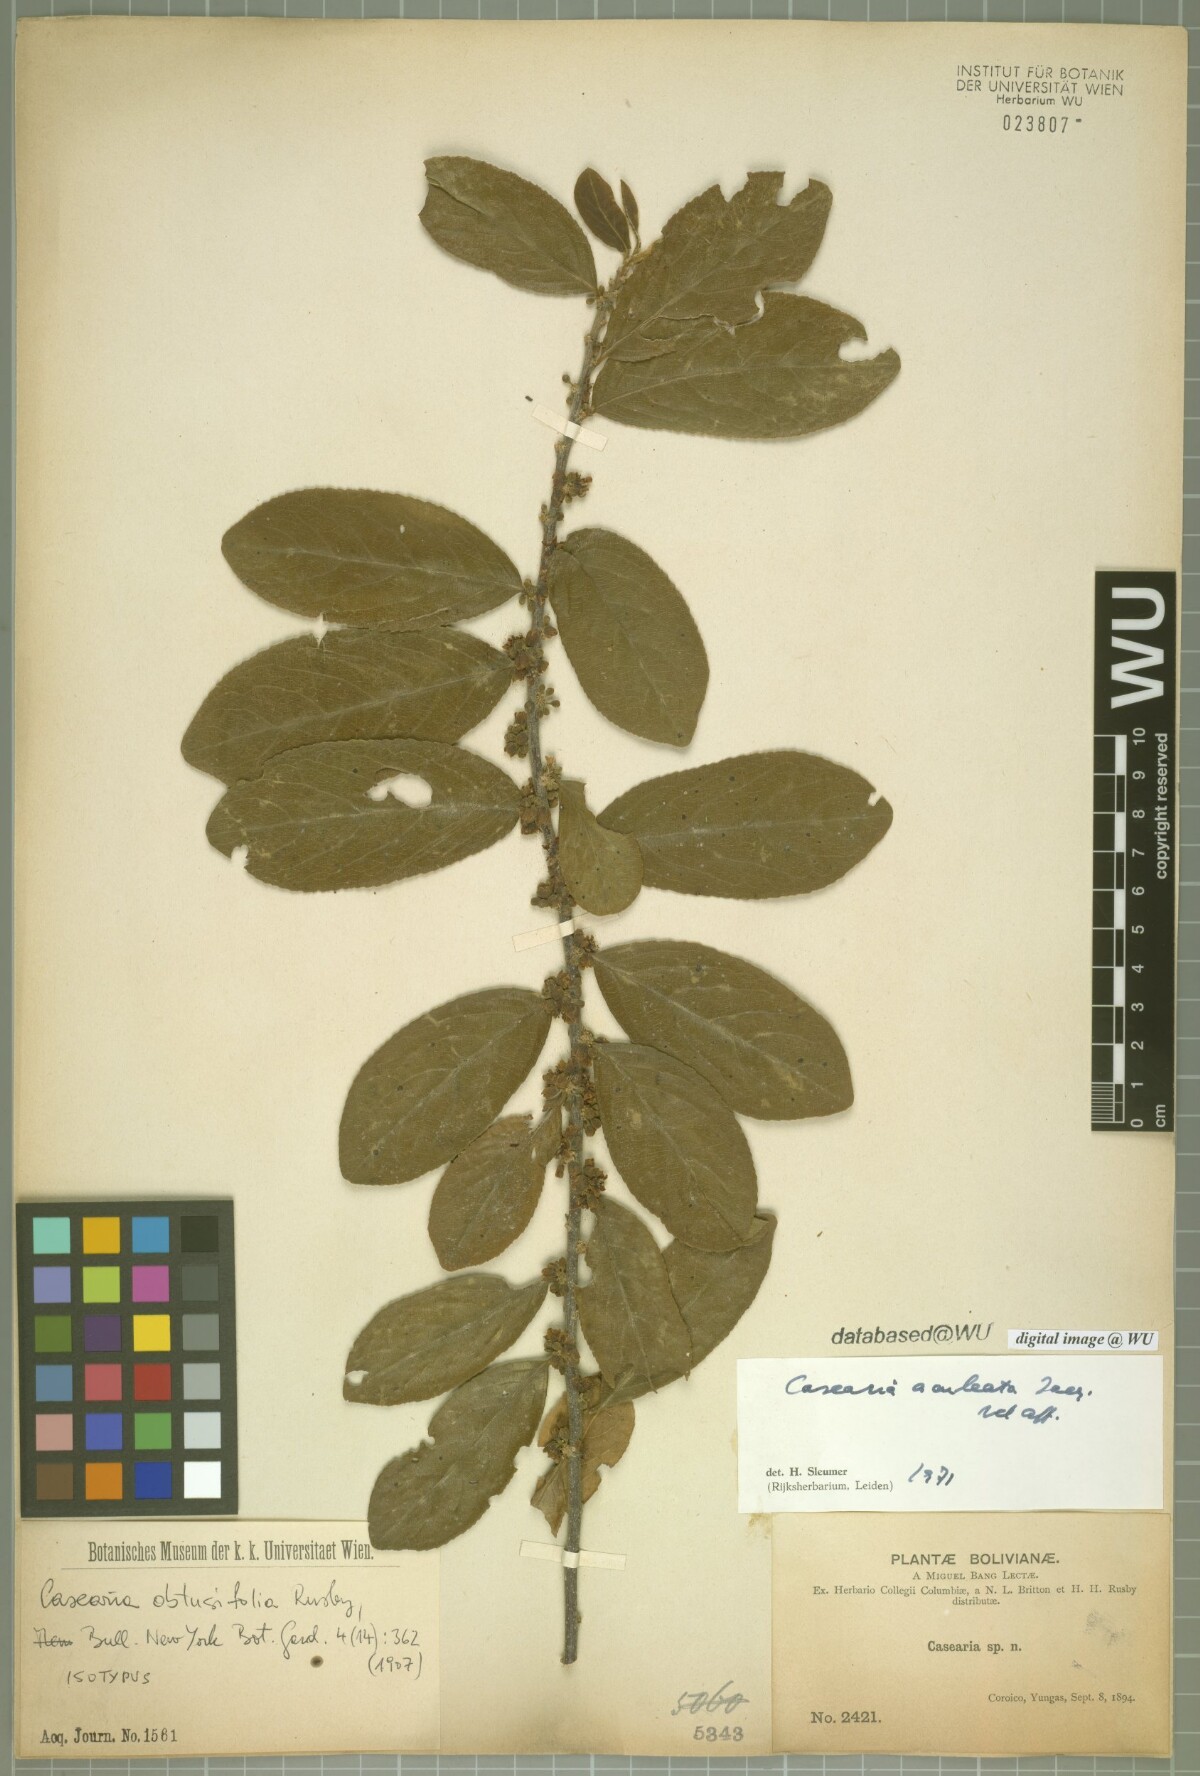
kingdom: Plantae
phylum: Tracheophyta
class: Magnoliopsida
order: Malpighiales
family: Salicaceae
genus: Casearia
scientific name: Casearia aculeata
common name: Cockspur
